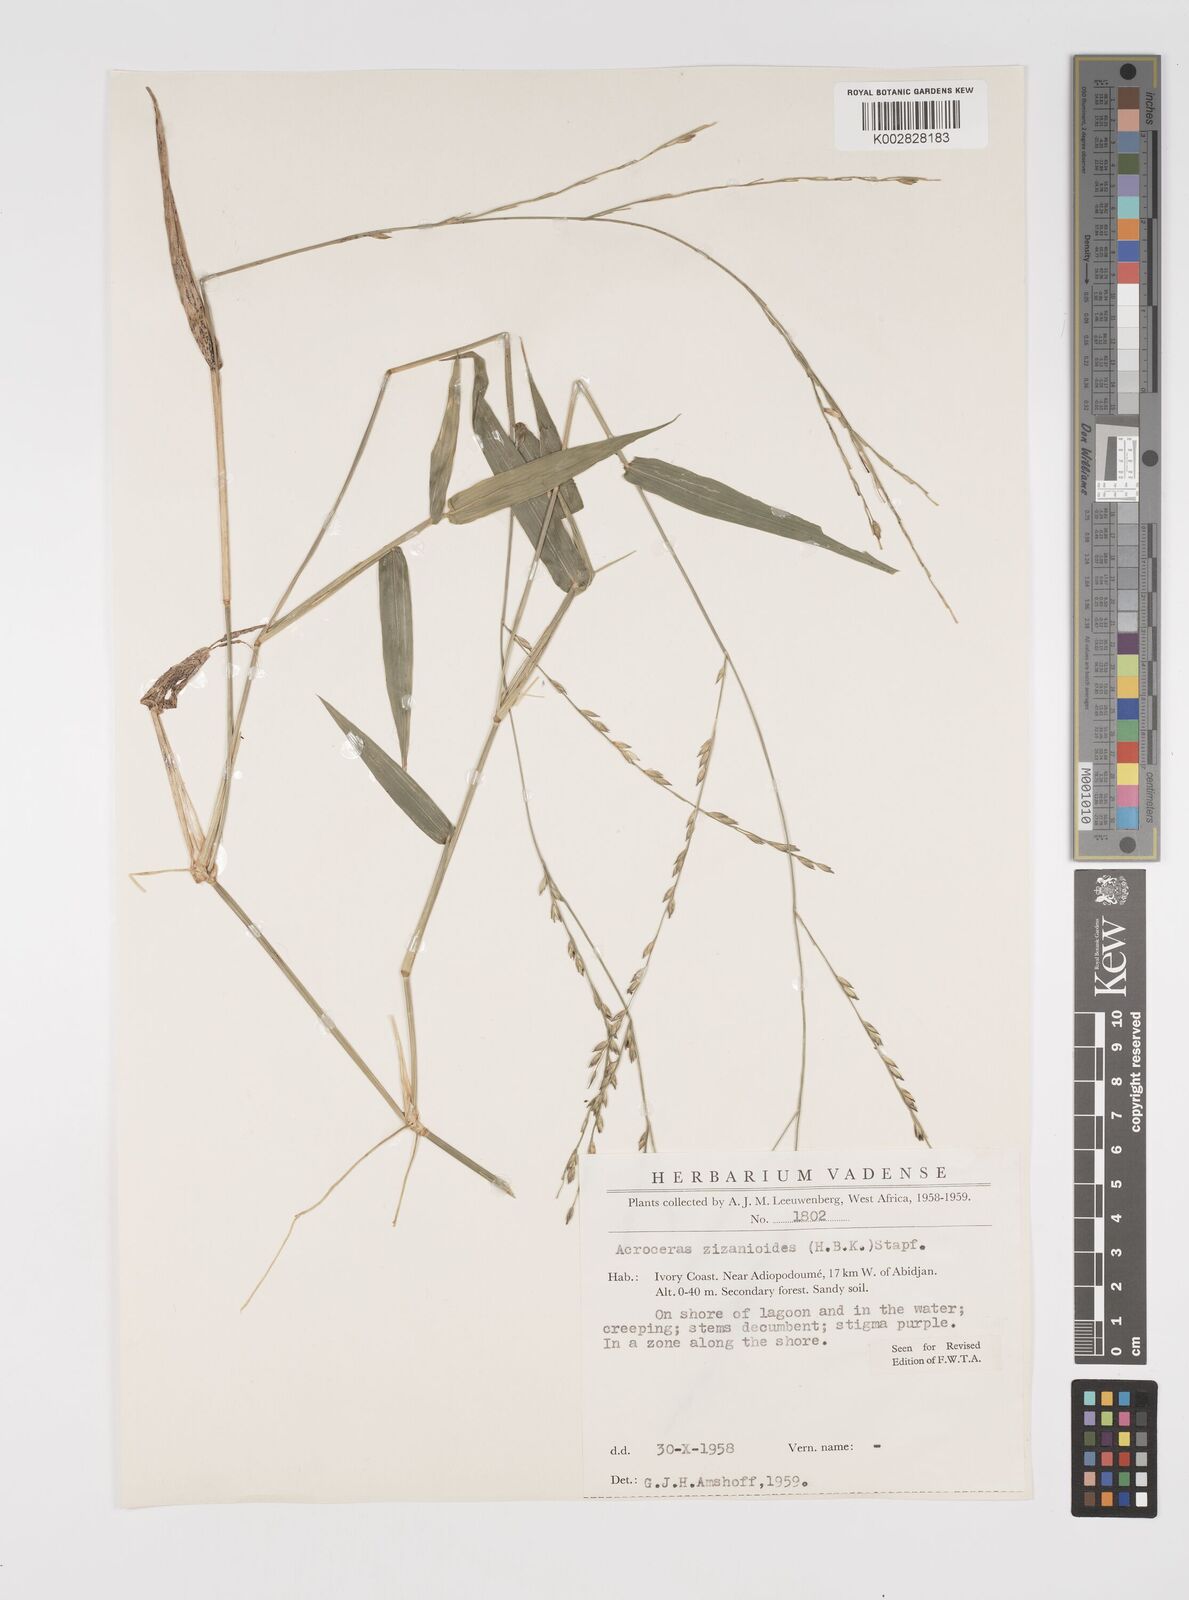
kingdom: Plantae
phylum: Tracheophyta
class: Liliopsida
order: Poales
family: Poaceae
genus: Acroceras
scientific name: Acroceras zizanioides
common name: Oat grass
